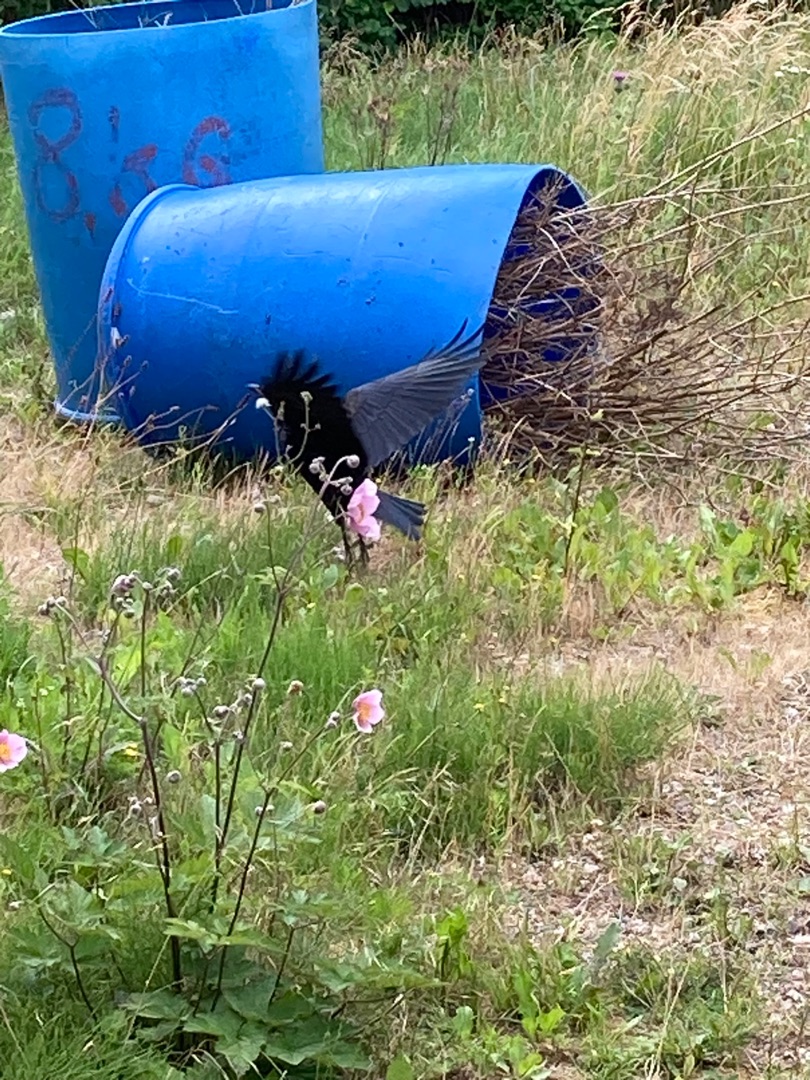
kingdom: Animalia
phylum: Chordata
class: Aves
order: Passeriformes
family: Corvidae
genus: Corvus
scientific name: Corvus frugilegus
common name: Råge
